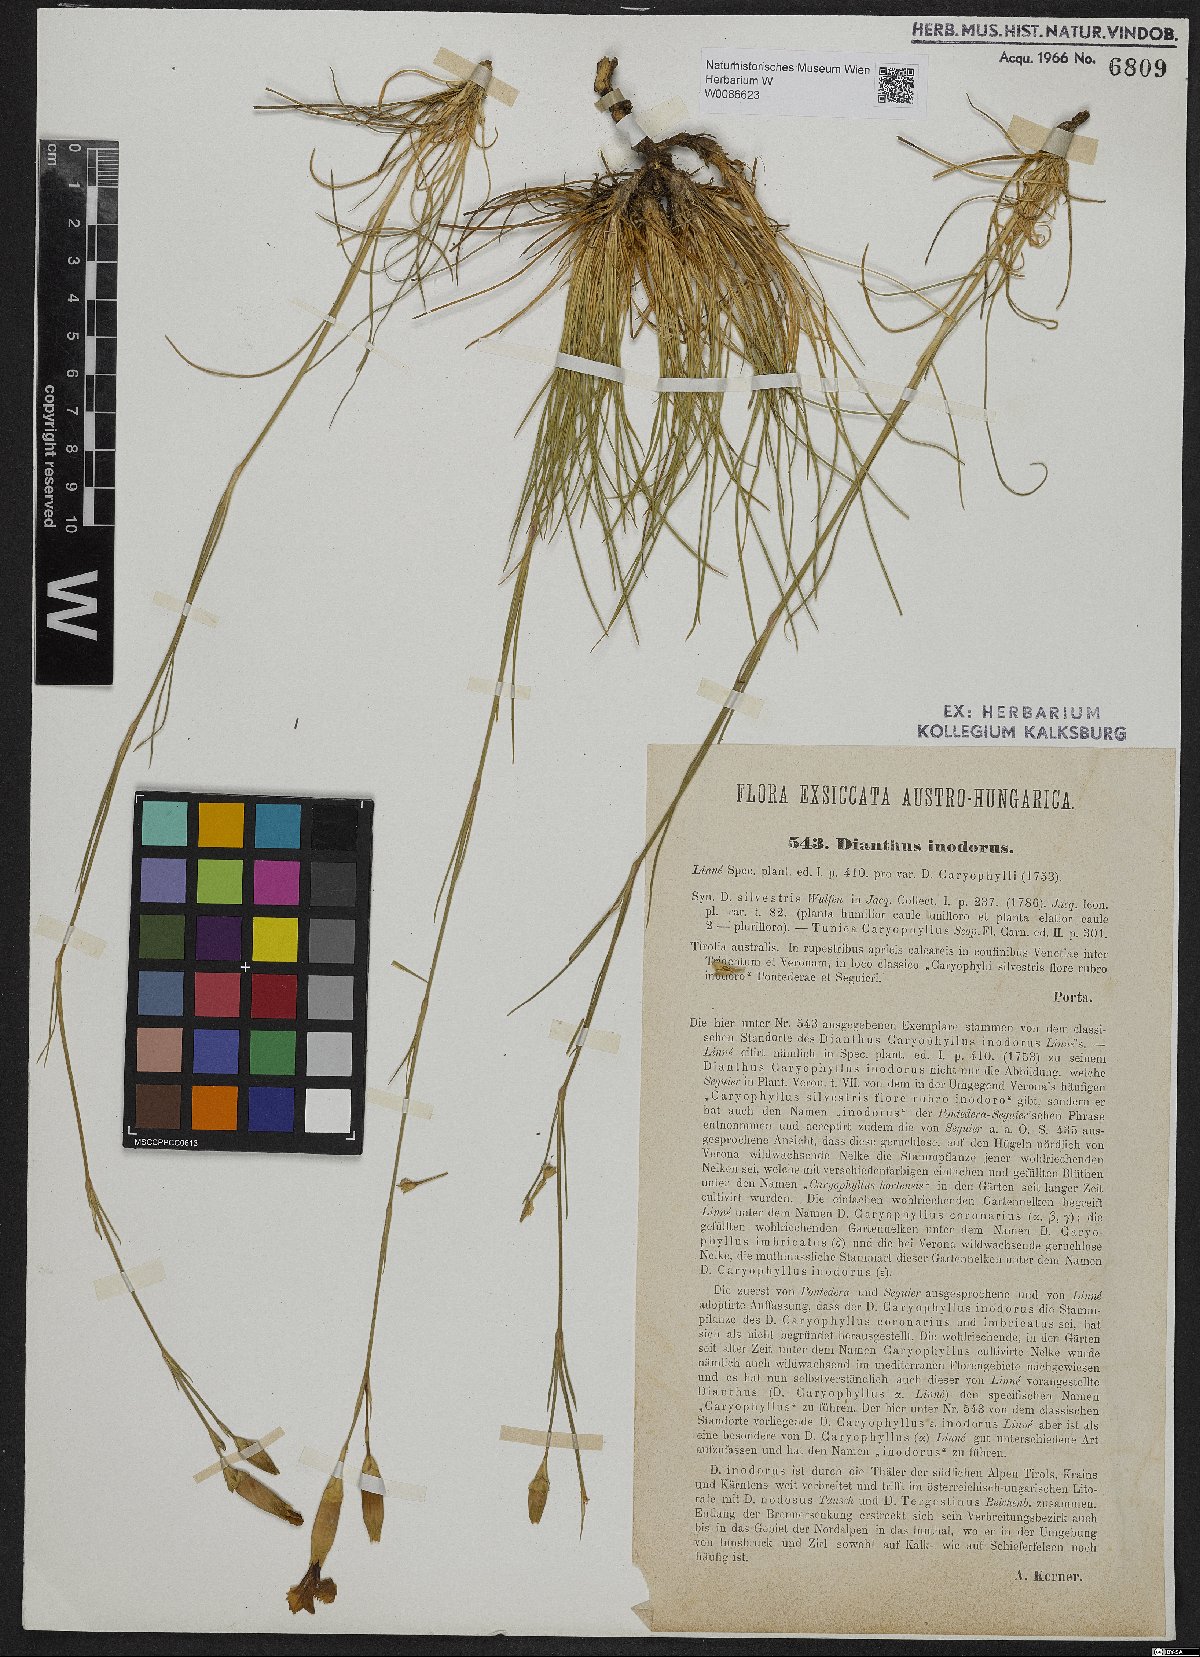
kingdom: Plantae
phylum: Tracheophyta
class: Magnoliopsida
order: Caryophyllales
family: Caryophyllaceae
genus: Dianthus
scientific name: Dianthus sylvestris
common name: Wood pink
